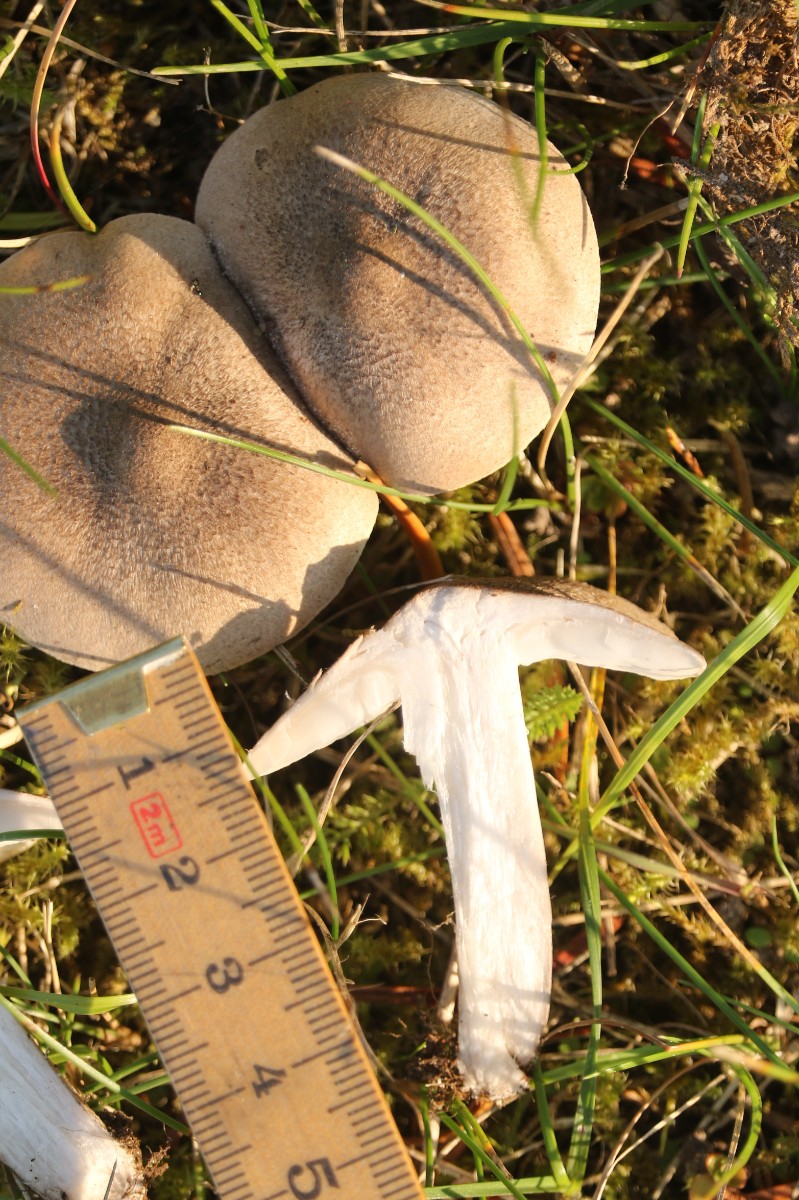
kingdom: Fungi
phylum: Basidiomycota
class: Agaricomycetes
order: Agaricales
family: Tricholomataceae
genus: Tricholoma
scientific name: Tricholoma
